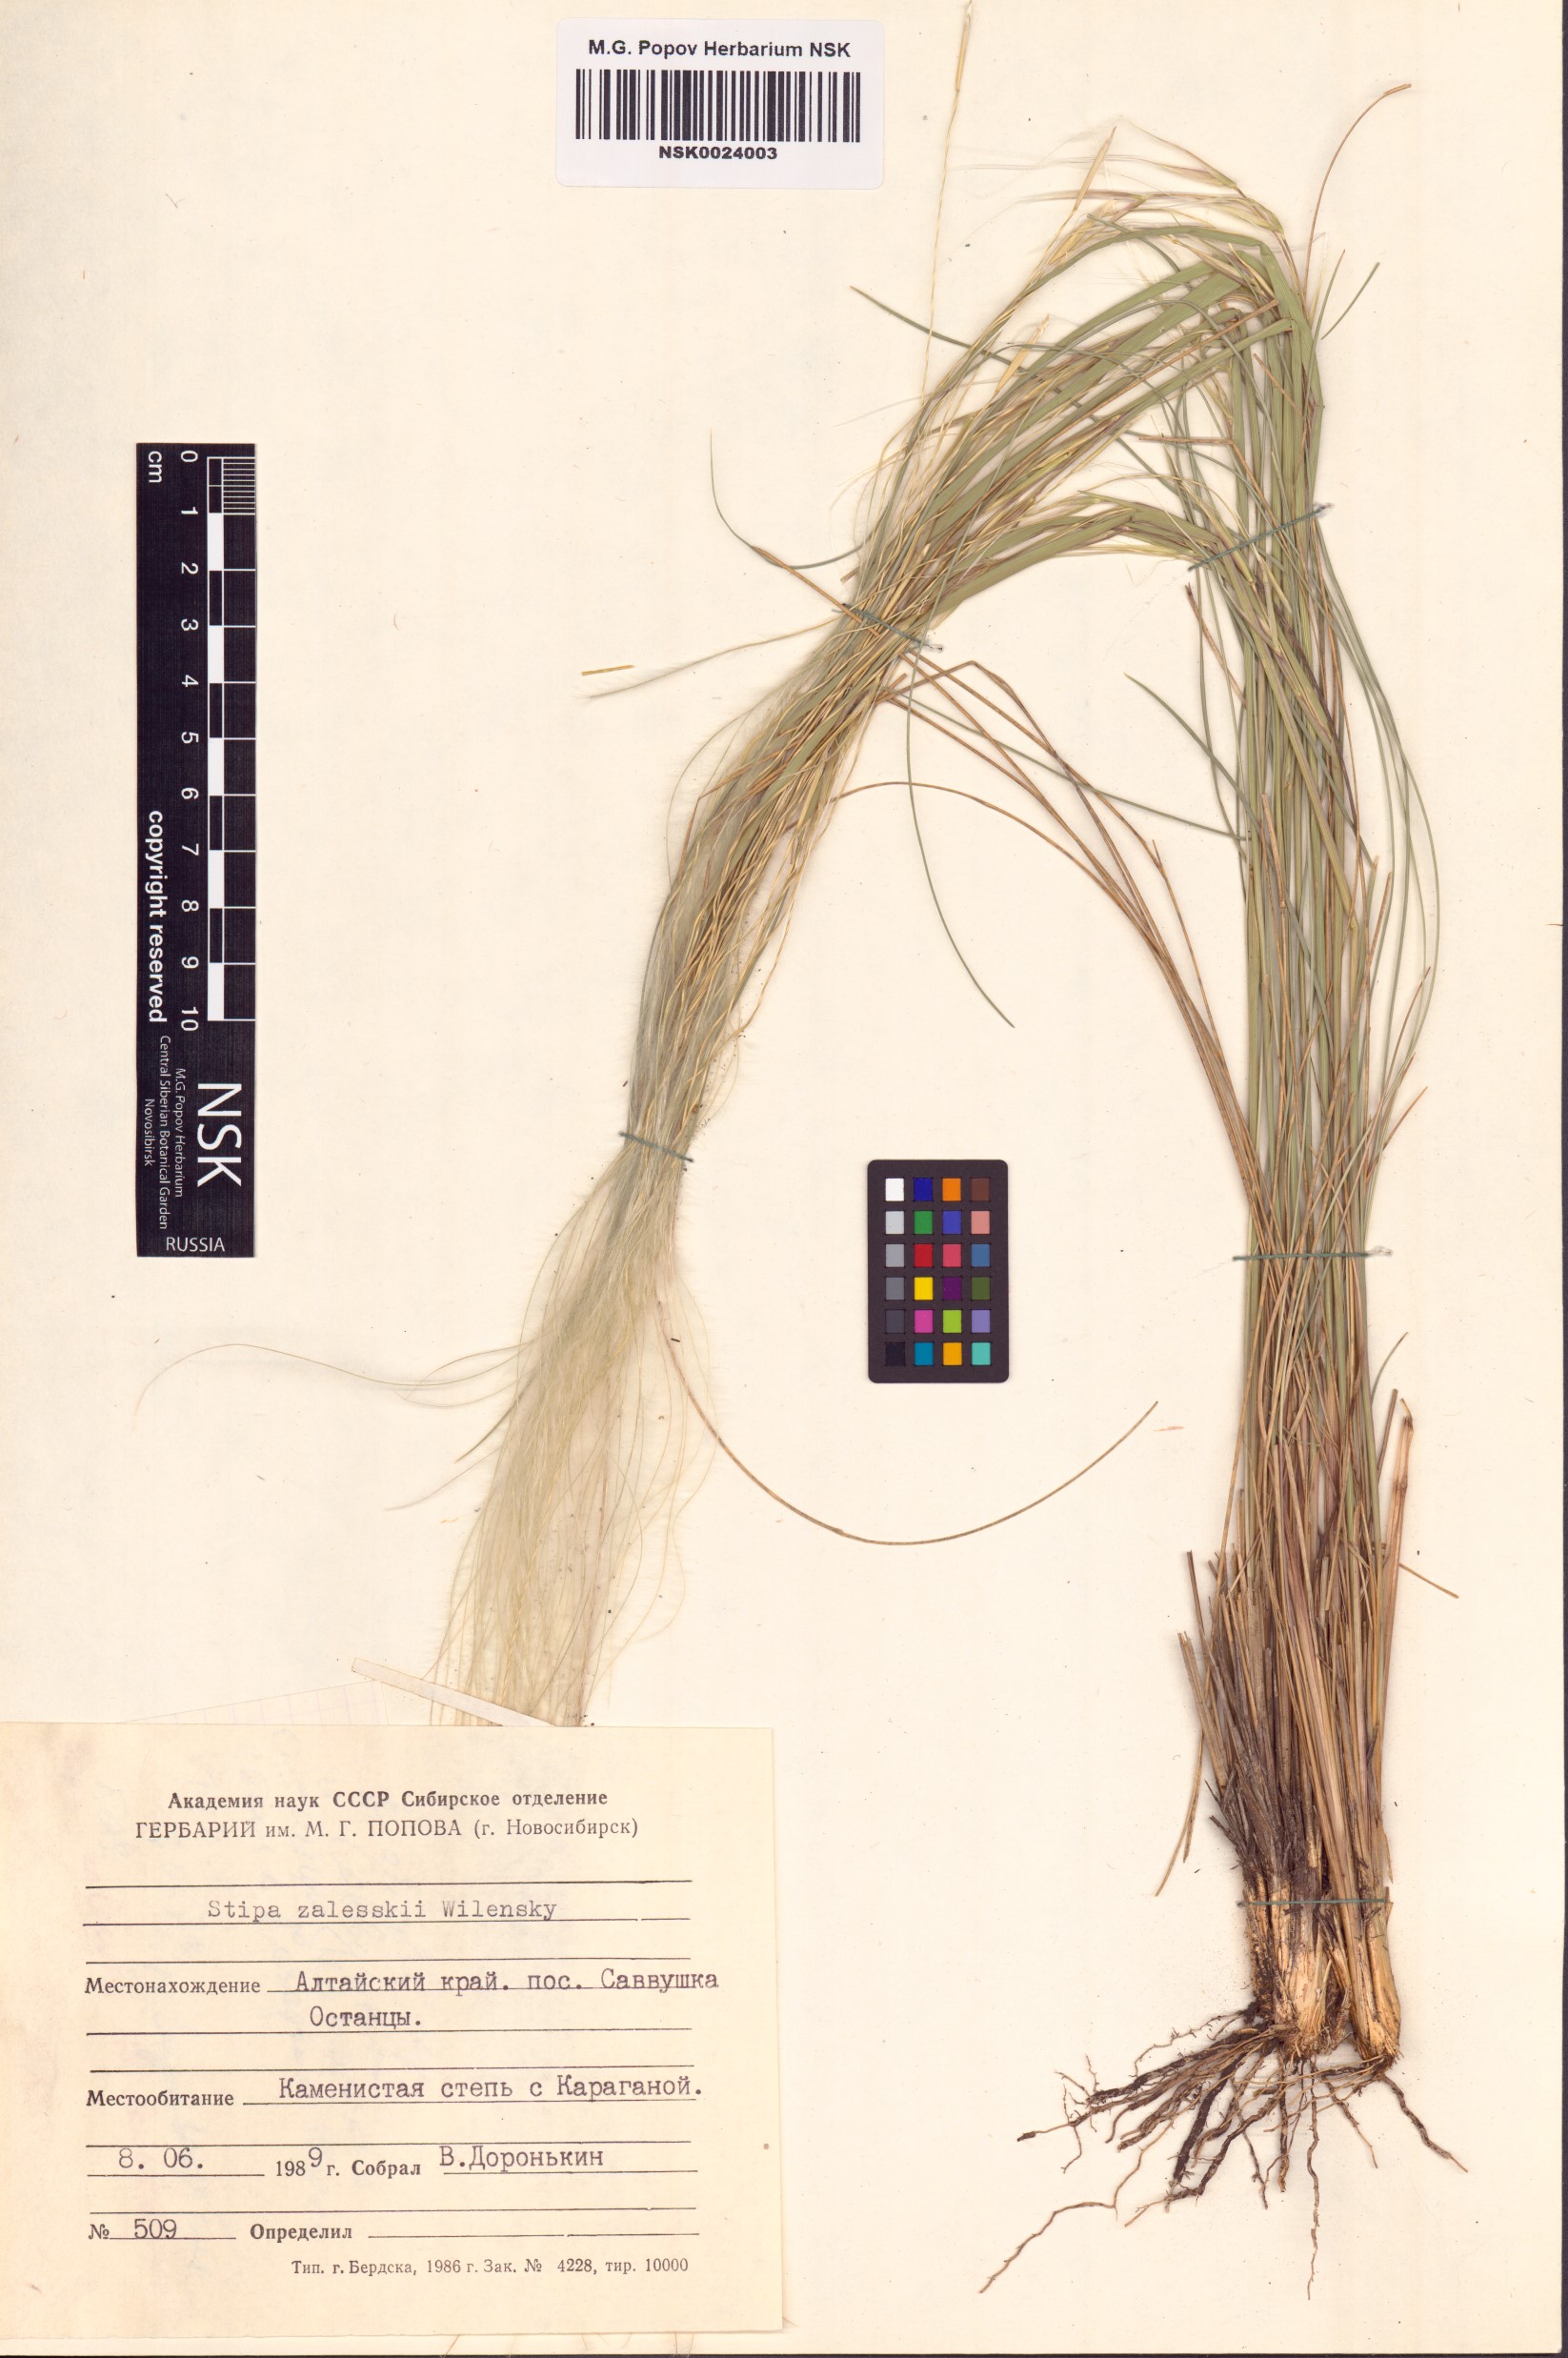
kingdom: Plantae
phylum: Tracheophyta
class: Liliopsida
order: Poales
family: Poaceae
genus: Stipa
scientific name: Stipa zalesskii
